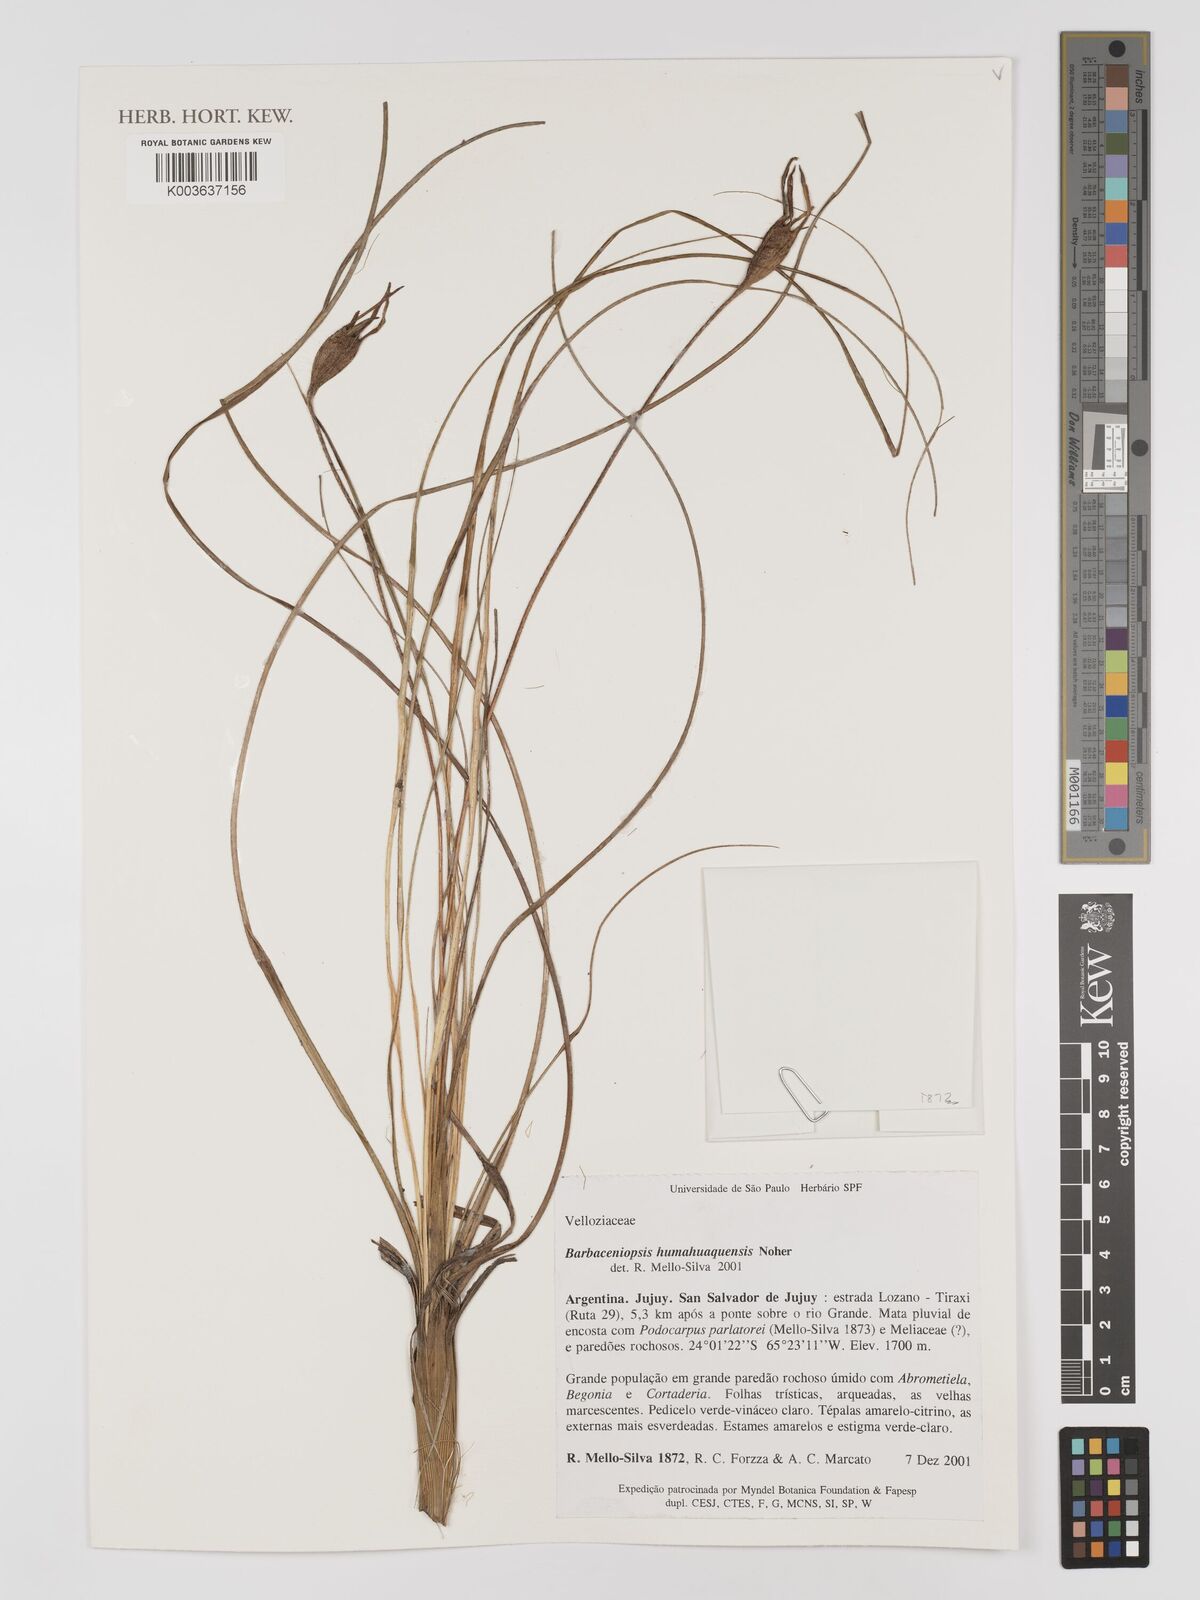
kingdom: Plantae
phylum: Tracheophyta
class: Liliopsida
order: Pandanales
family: Velloziaceae
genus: Xerophyta
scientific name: Xerophyta
